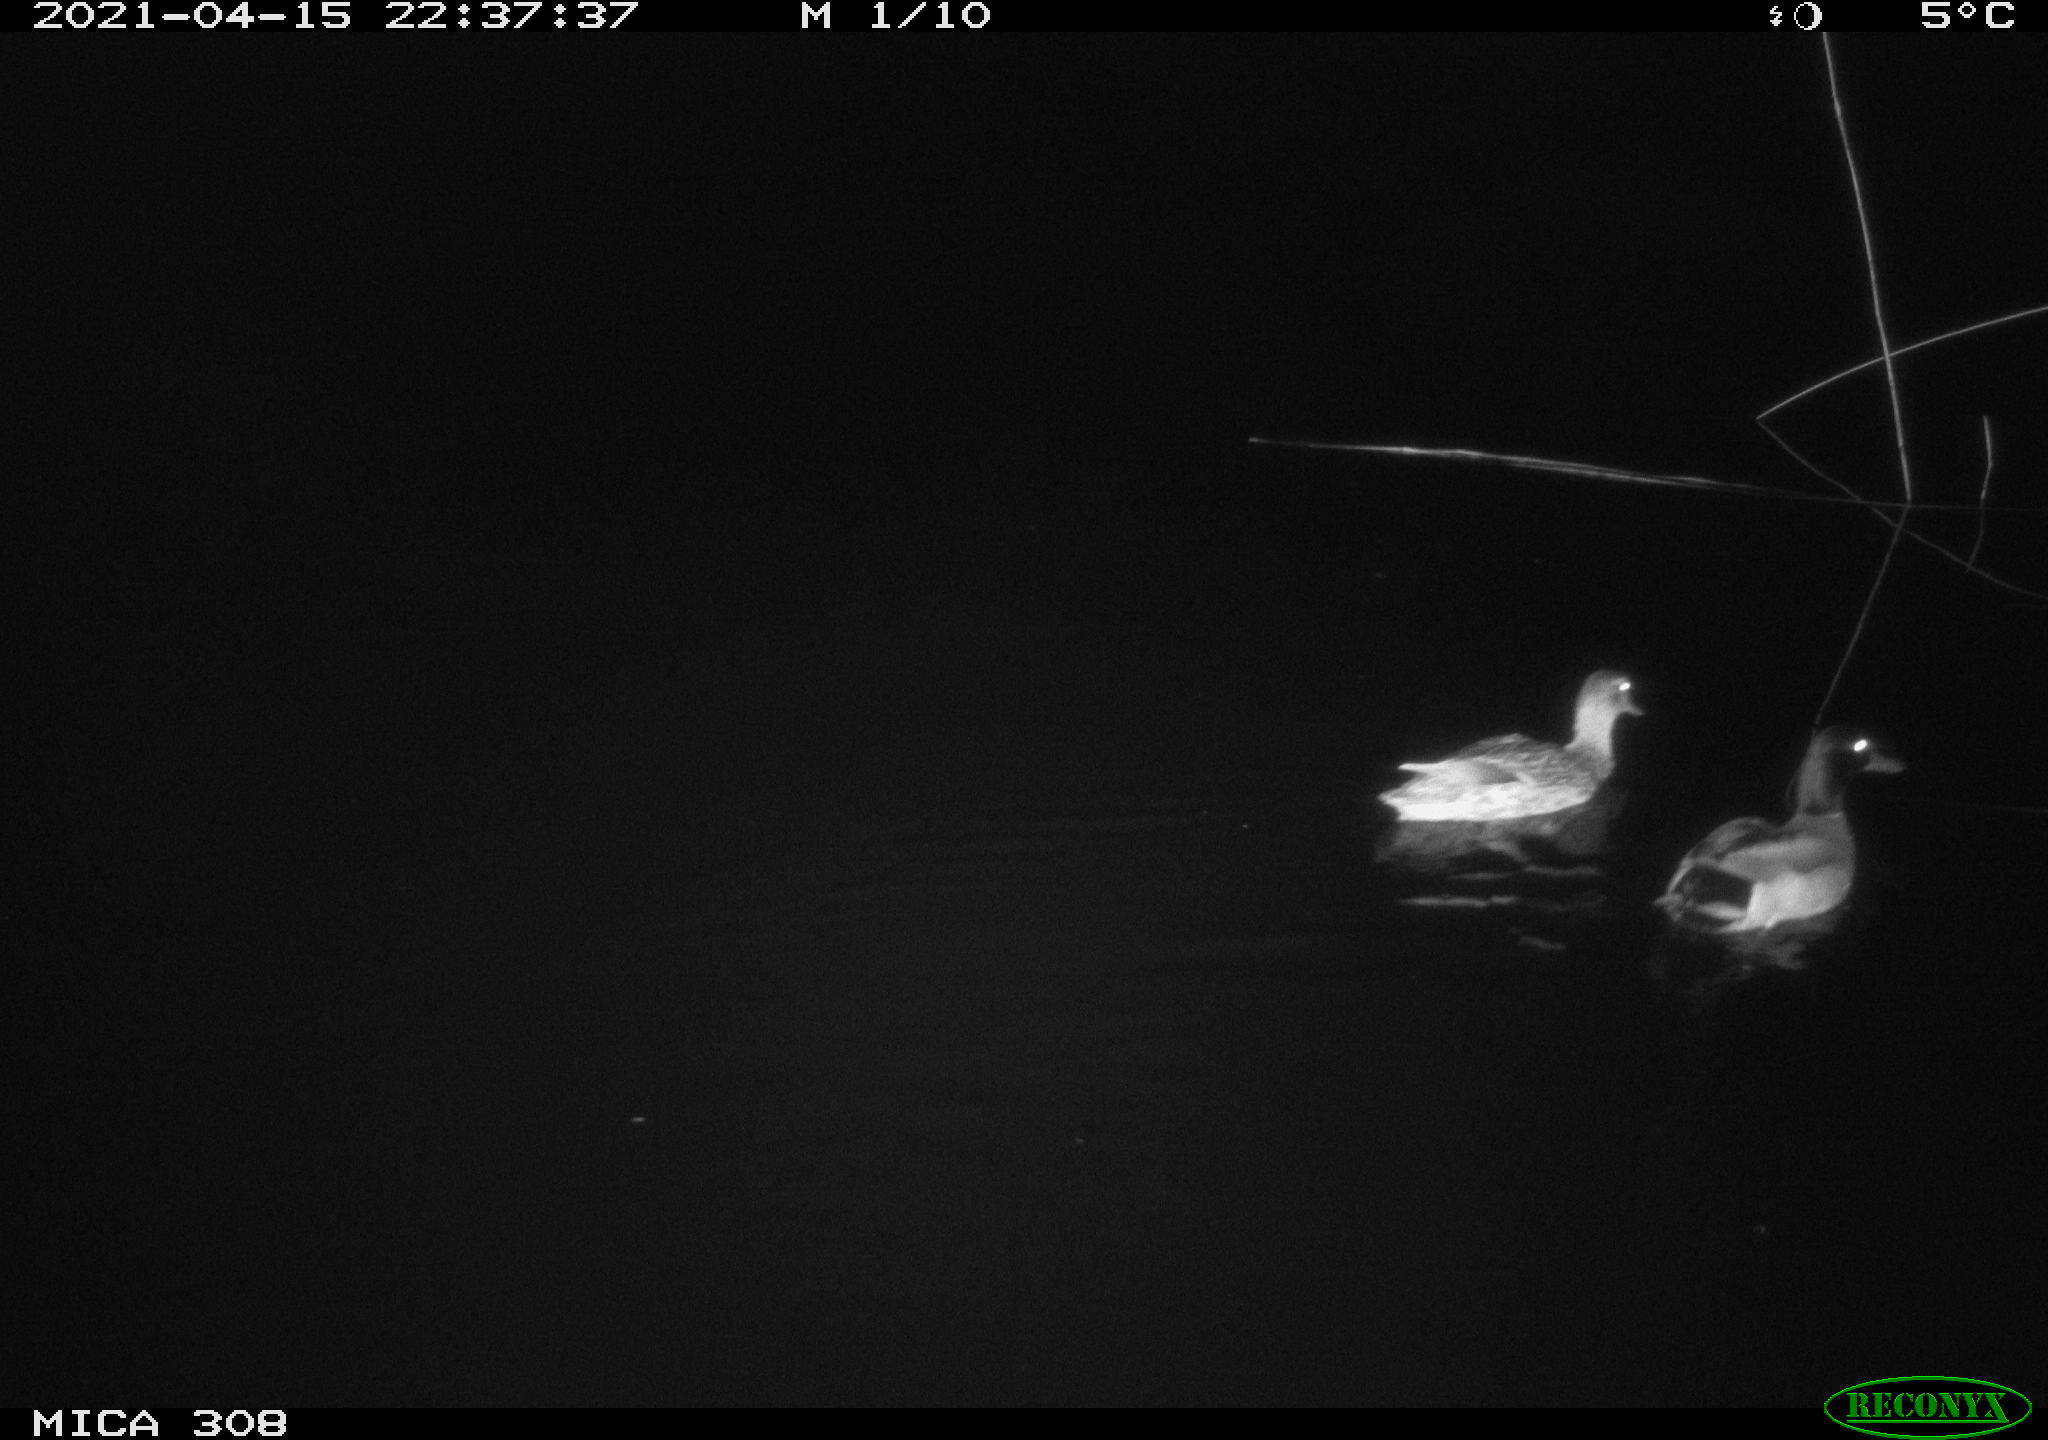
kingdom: Animalia
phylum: Chordata
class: Aves
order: Anseriformes
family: Anatidae
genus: Anas
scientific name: Anas platyrhynchos
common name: Mallard
